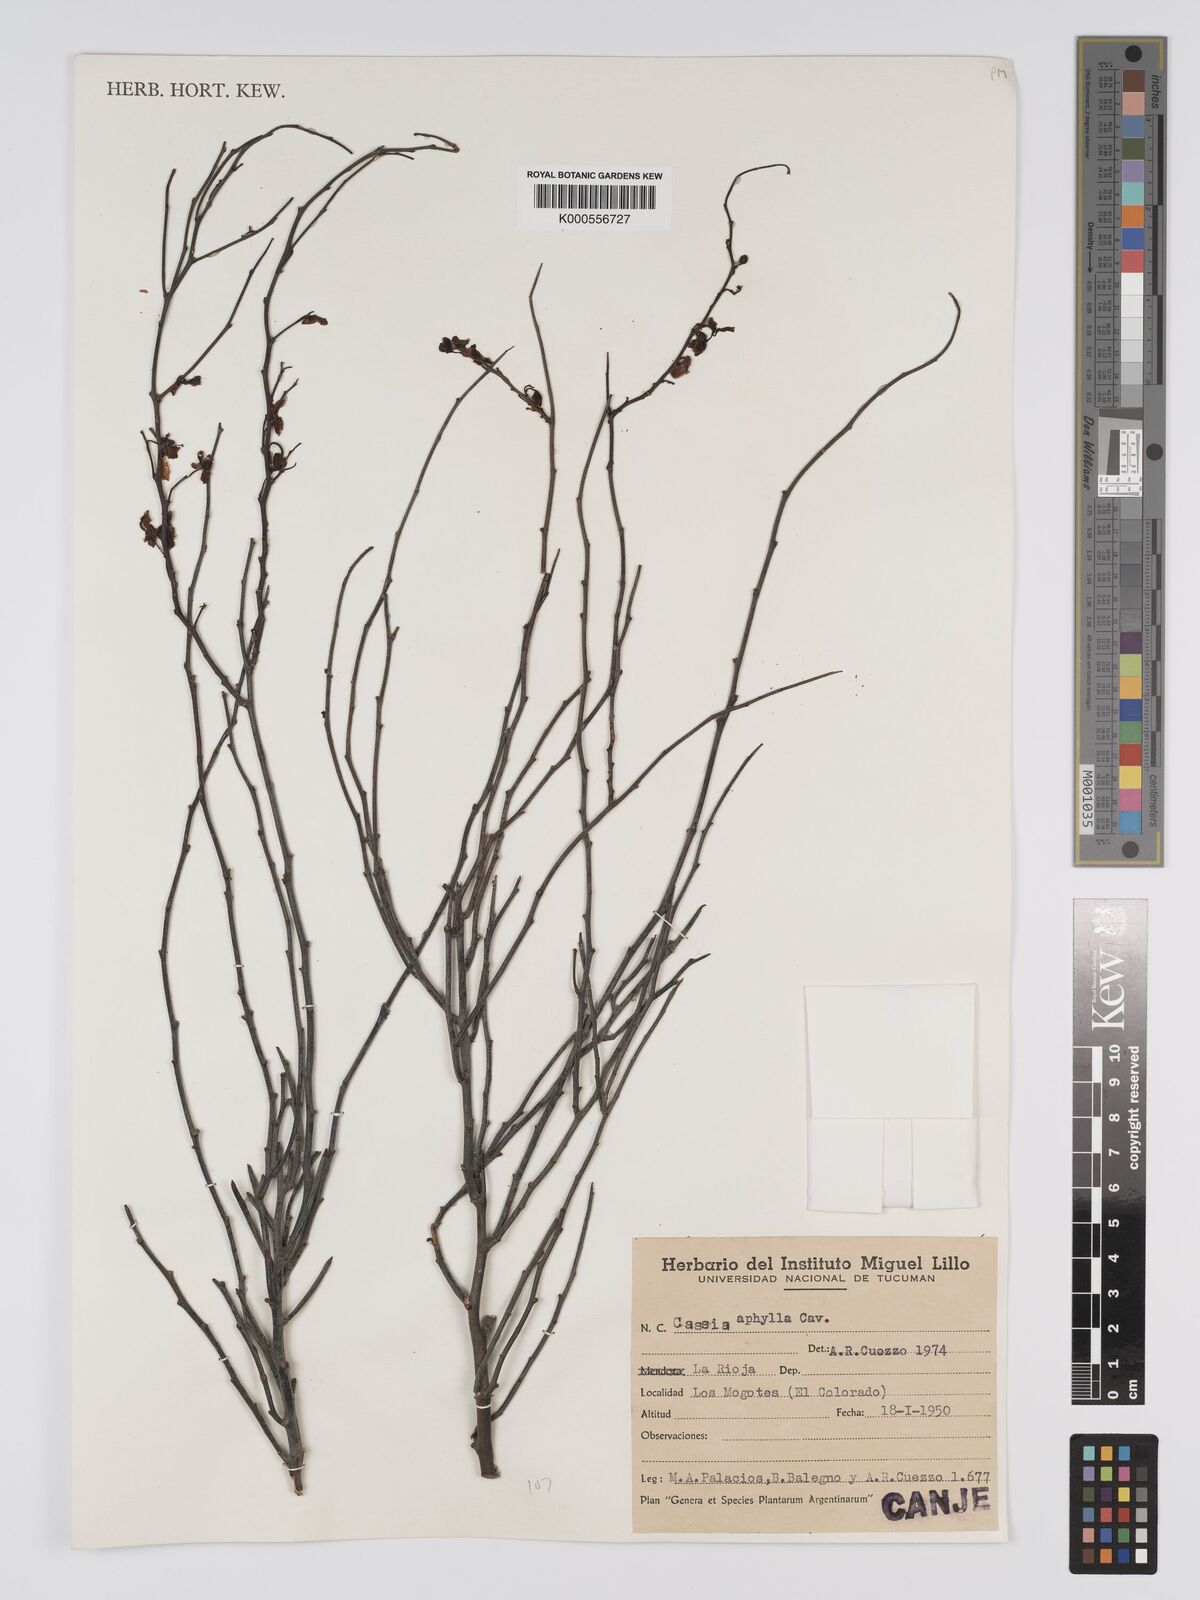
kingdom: Plantae
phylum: Tracheophyta
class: Magnoliopsida
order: Fabales
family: Fabaceae
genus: Senna
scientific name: Senna aphylla
